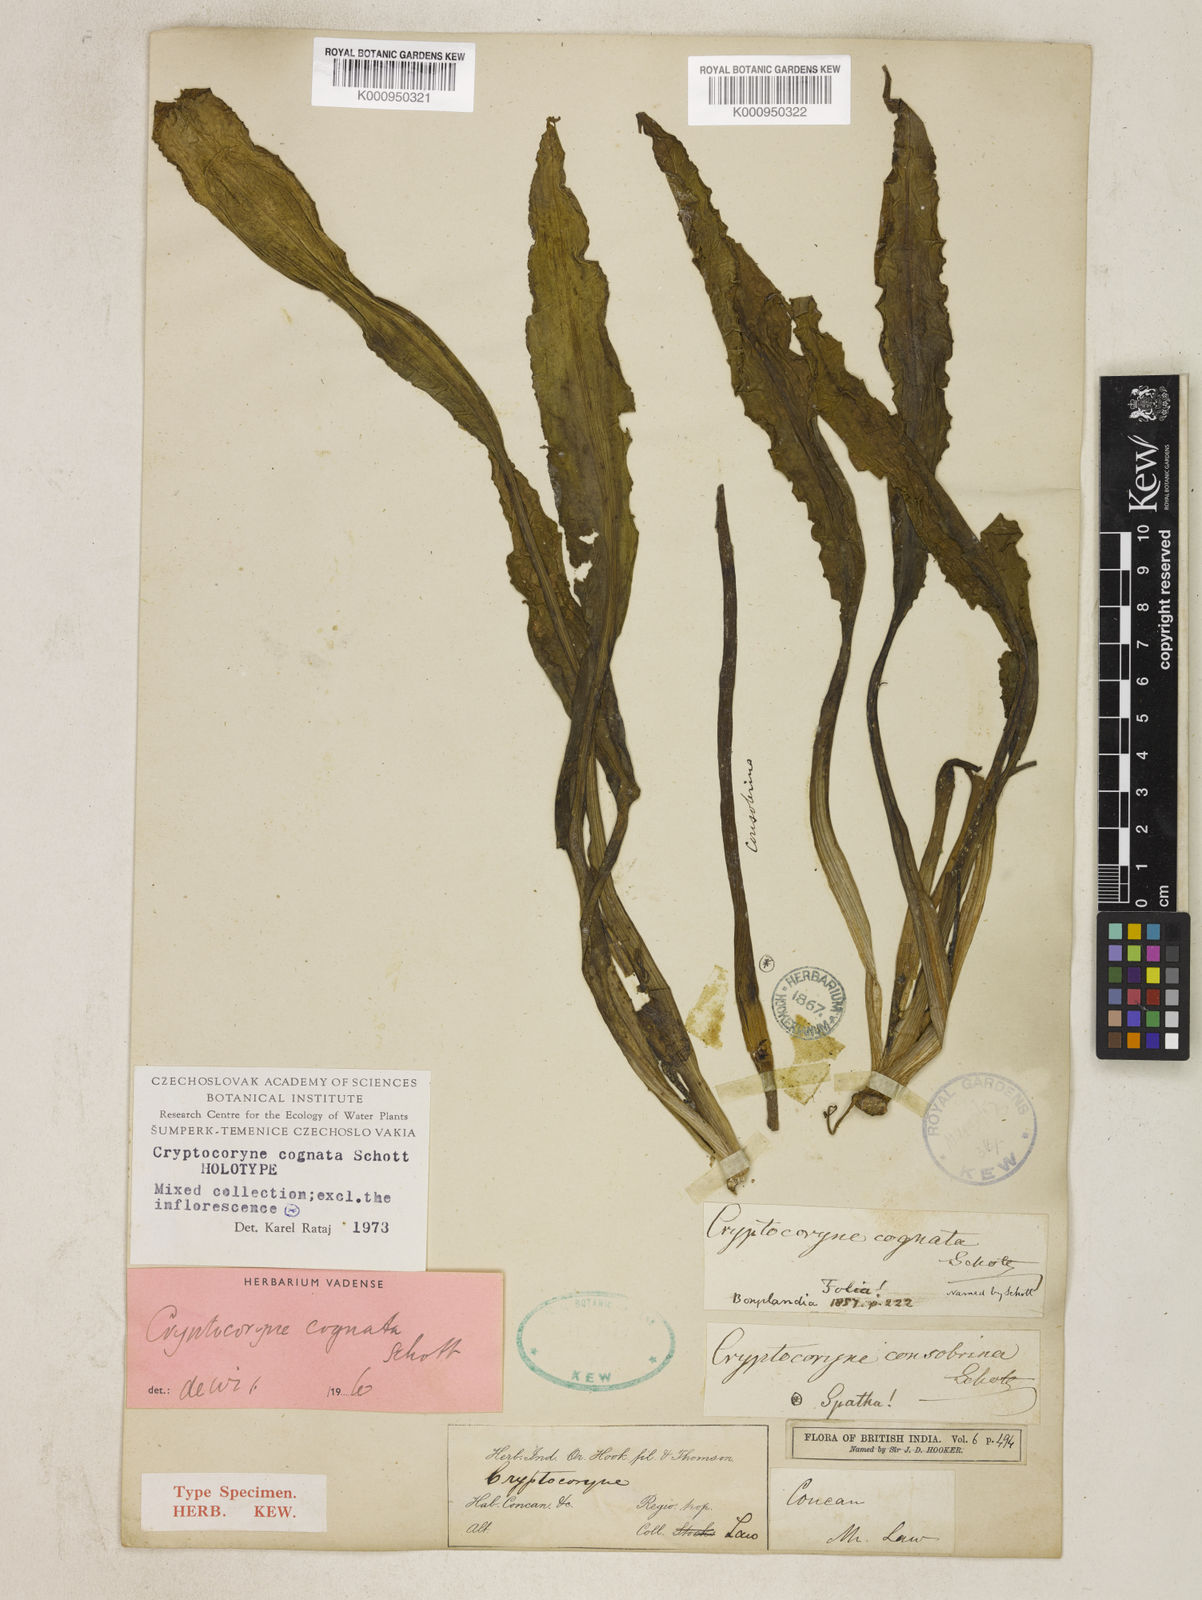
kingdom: Plantae
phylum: Tracheophyta
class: Liliopsida
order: Alismatales
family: Araceae
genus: Cryptocoryne
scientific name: Cryptocoryne cognata
